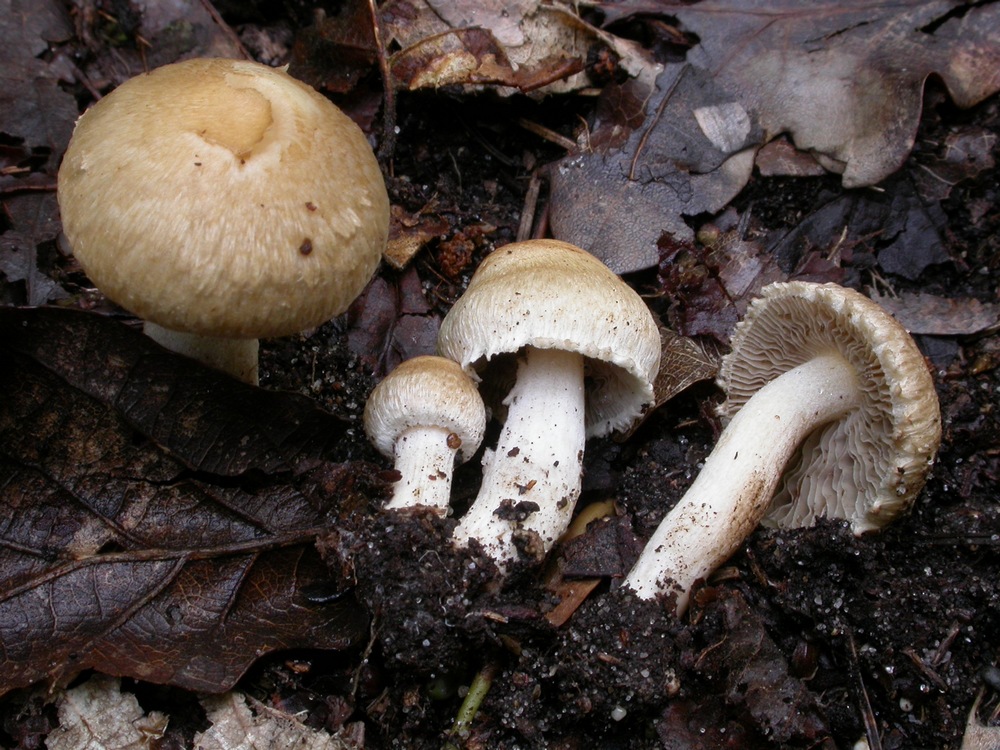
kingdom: Fungi
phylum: Basidiomycota
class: Agaricomycetes
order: Agaricales
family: Inocybaceae
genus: Inocybe
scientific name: Inocybe ochroalba
